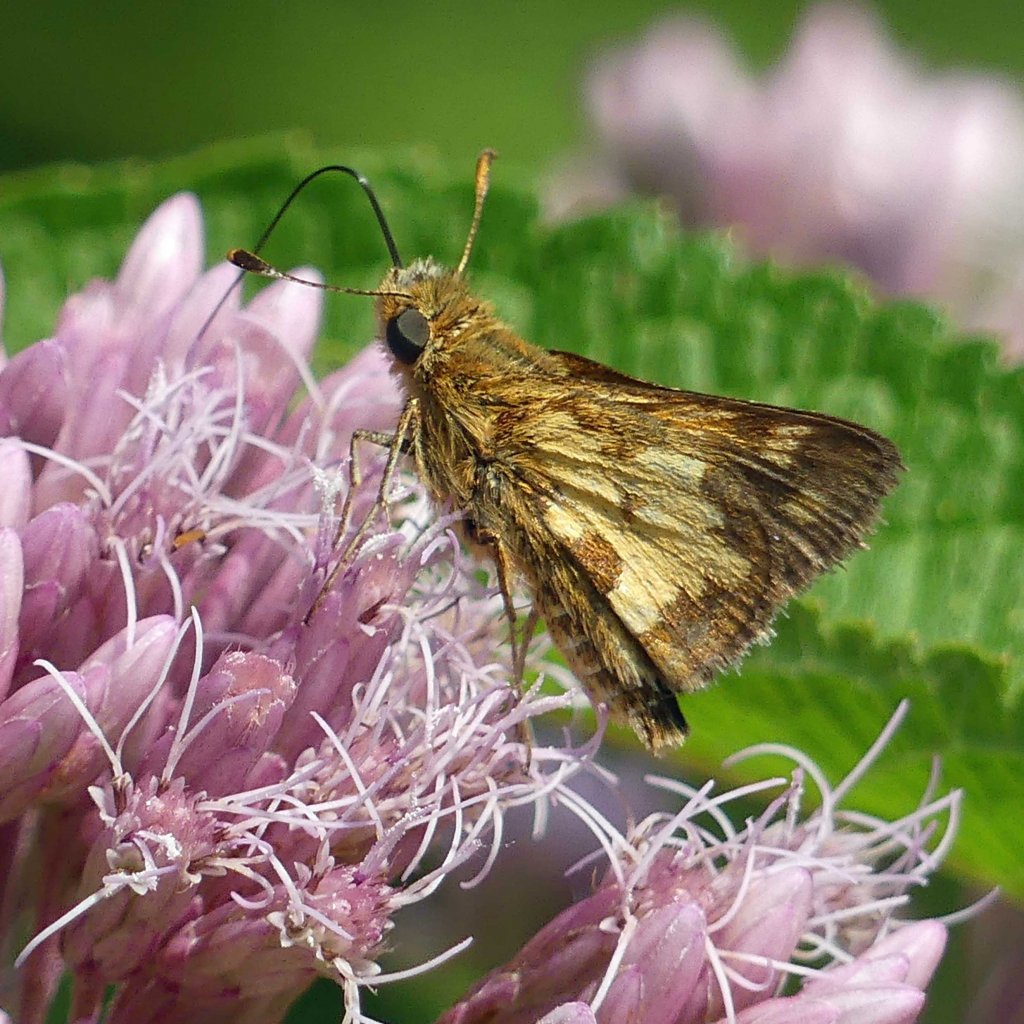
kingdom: Animalia
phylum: Arthropoda
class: Insecta
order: Lepidoptera
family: Hesperiidae
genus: Polites
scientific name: Polites coras
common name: Peck's Skipper
